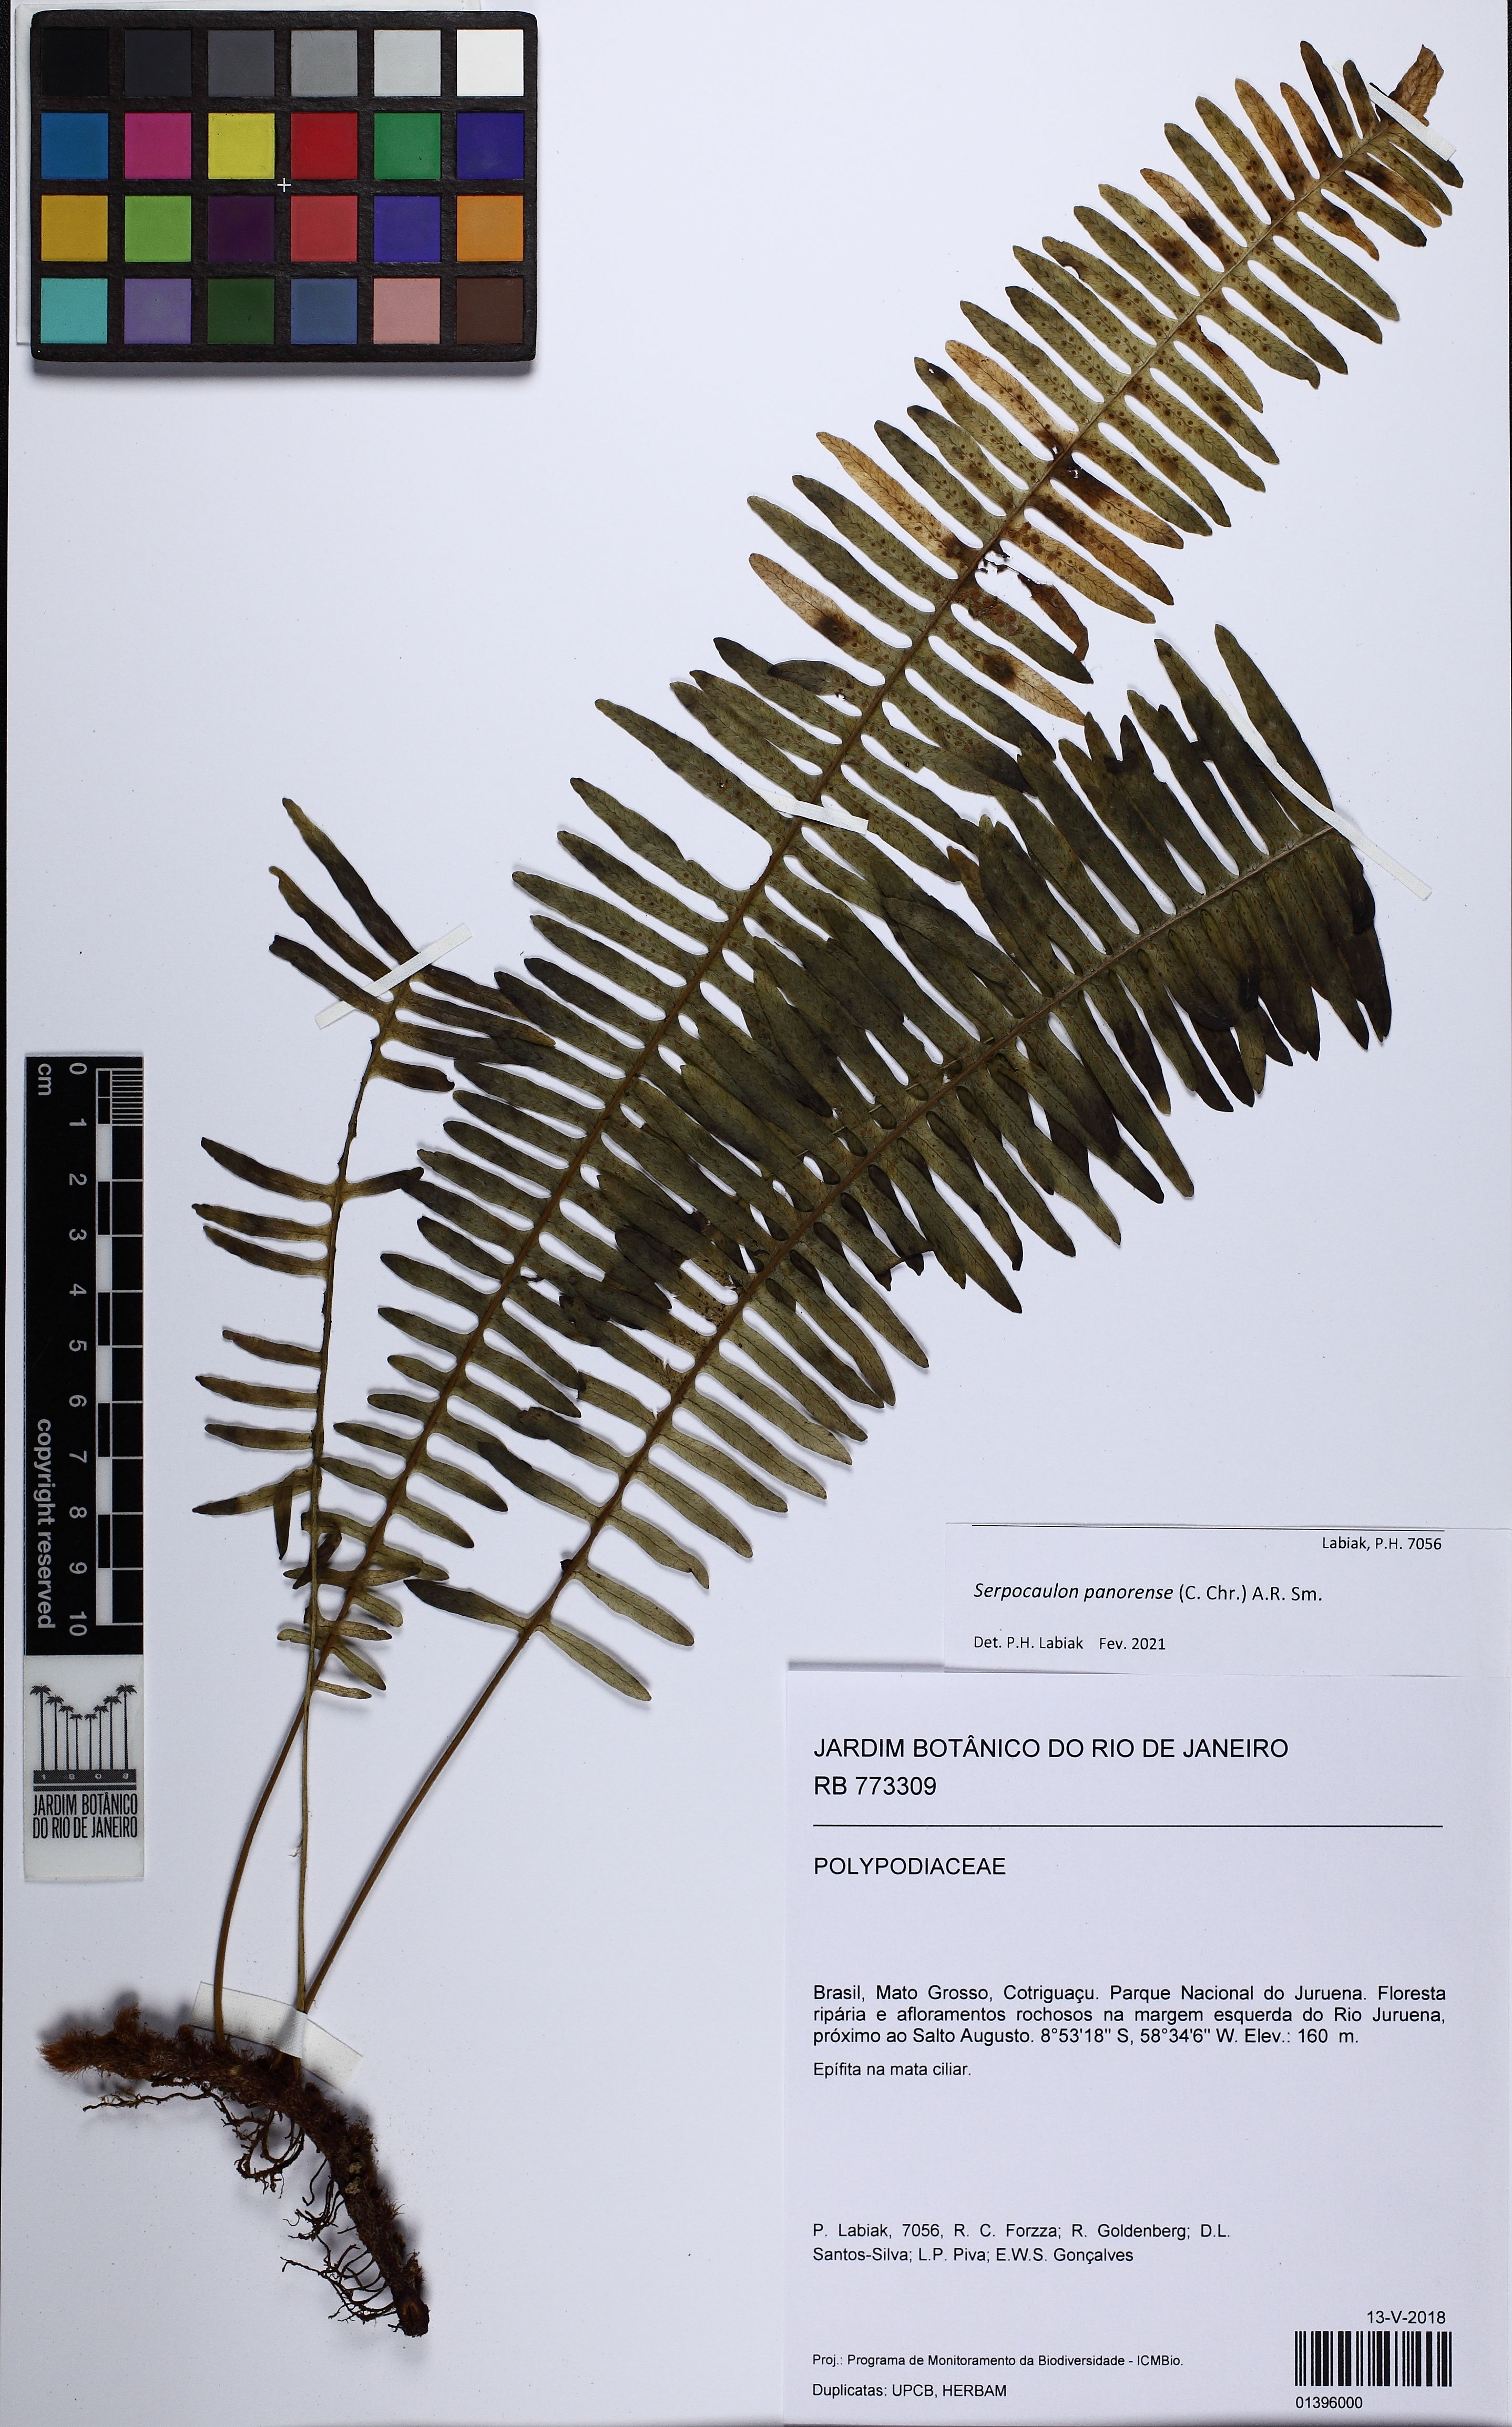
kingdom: Plantae
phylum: Tracheophyta
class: Polypodiopsida
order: Polypodiales
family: Polypodiaceae
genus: Serpocaulon
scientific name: Serpocaulon panorense
